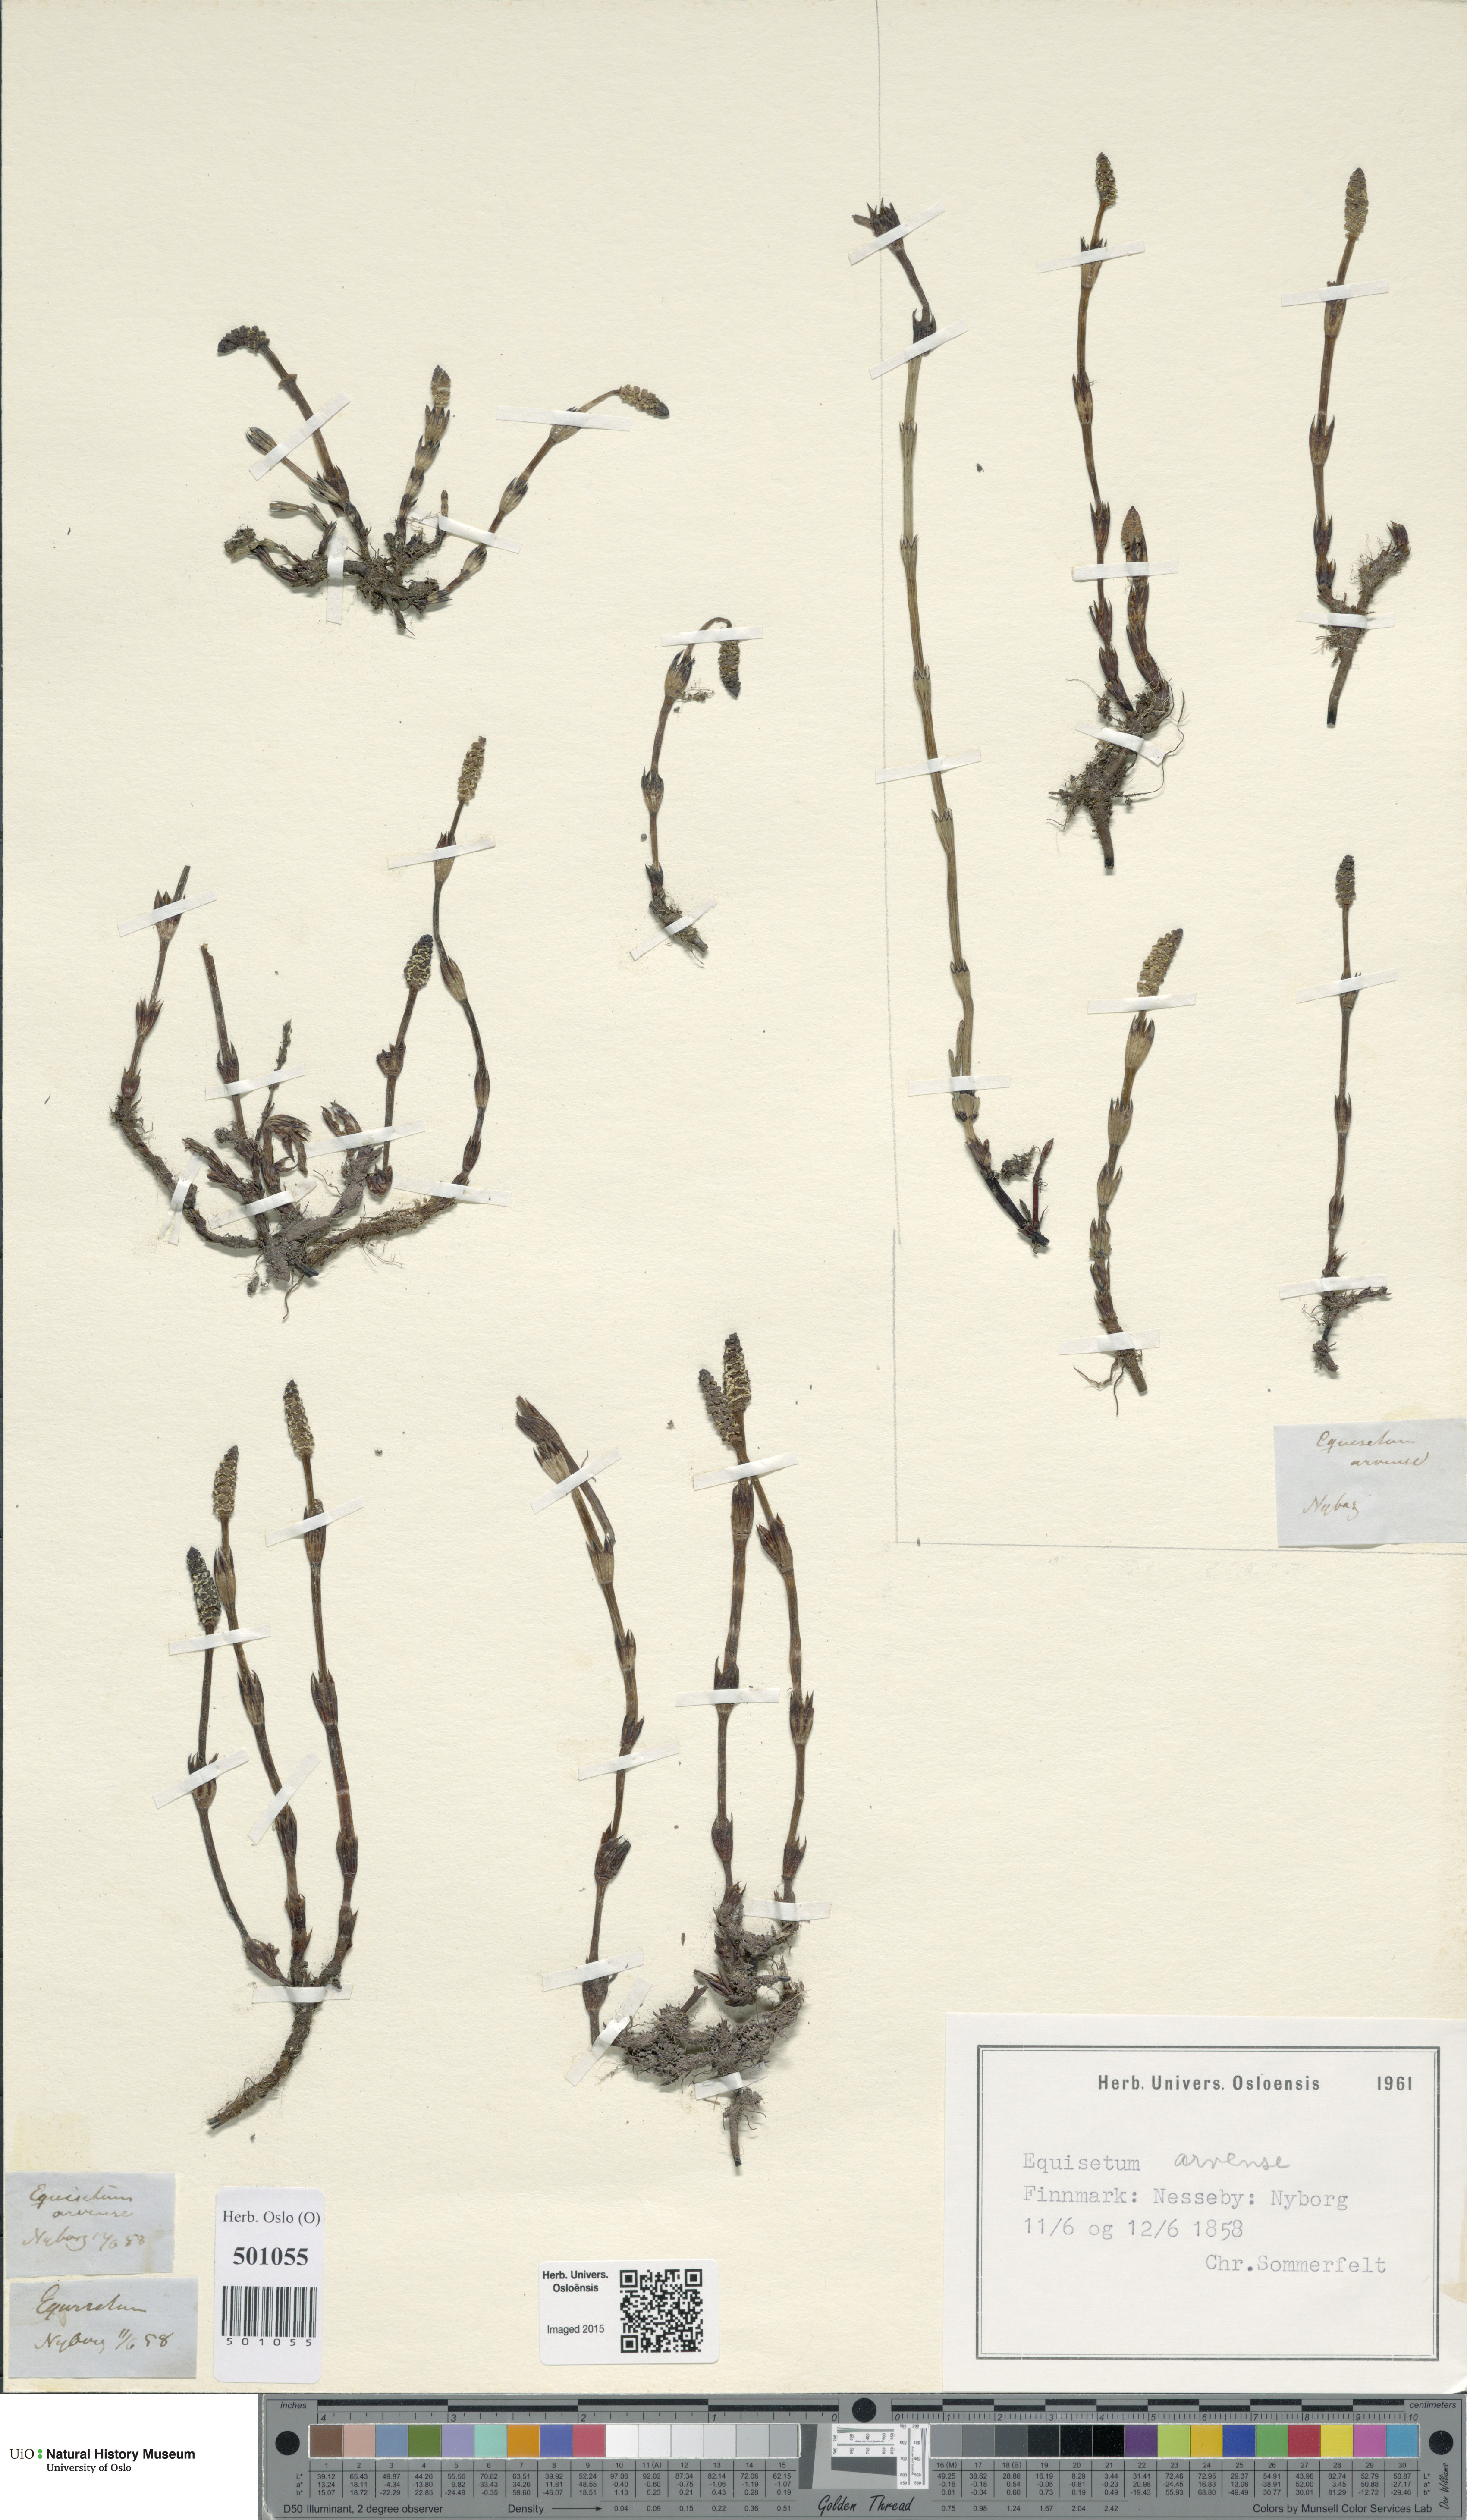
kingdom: Plantae
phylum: Tracheophyta
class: Polypodiopsida
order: Equisetales
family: Equisetaceae
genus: Equisetum
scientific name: Equisetum arvense
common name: Field horsetail
